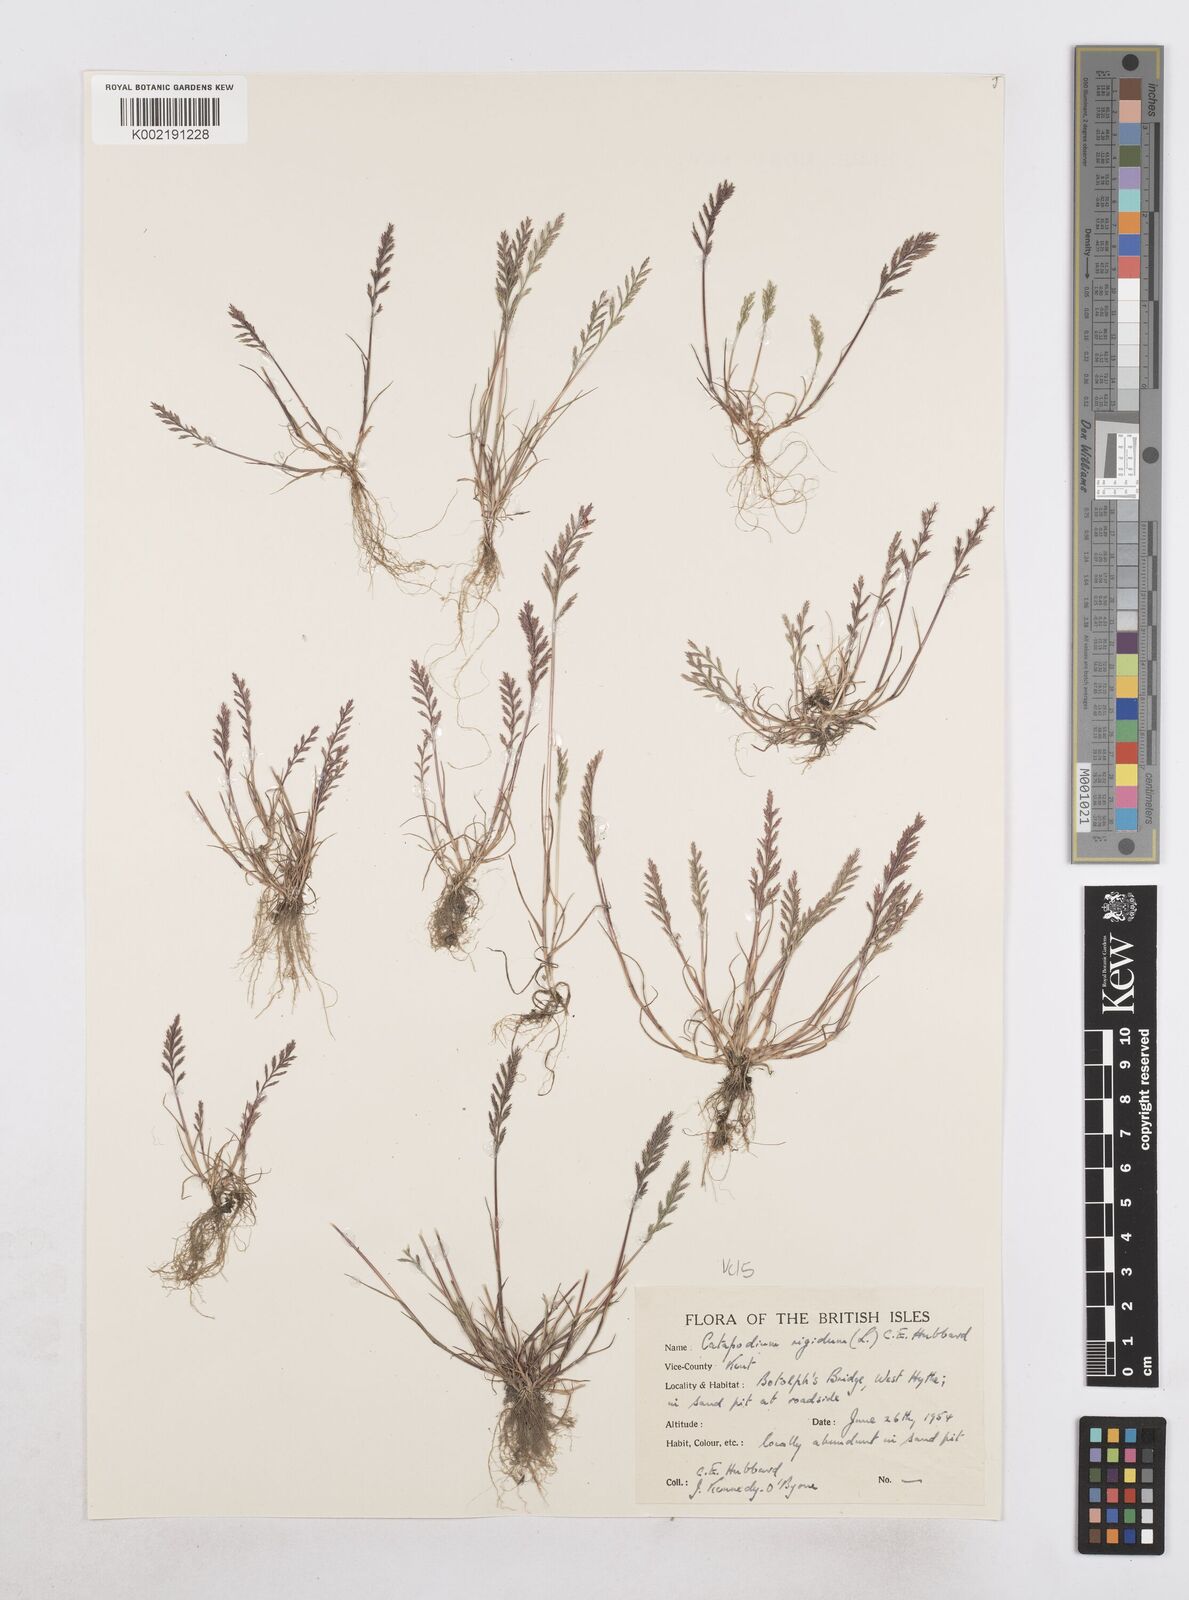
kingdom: Plantae
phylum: Tracheophyta
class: Liliopsida
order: Poales
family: Poaceae
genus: Catapodium
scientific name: Catapodium rigidum
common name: Fern-grass
